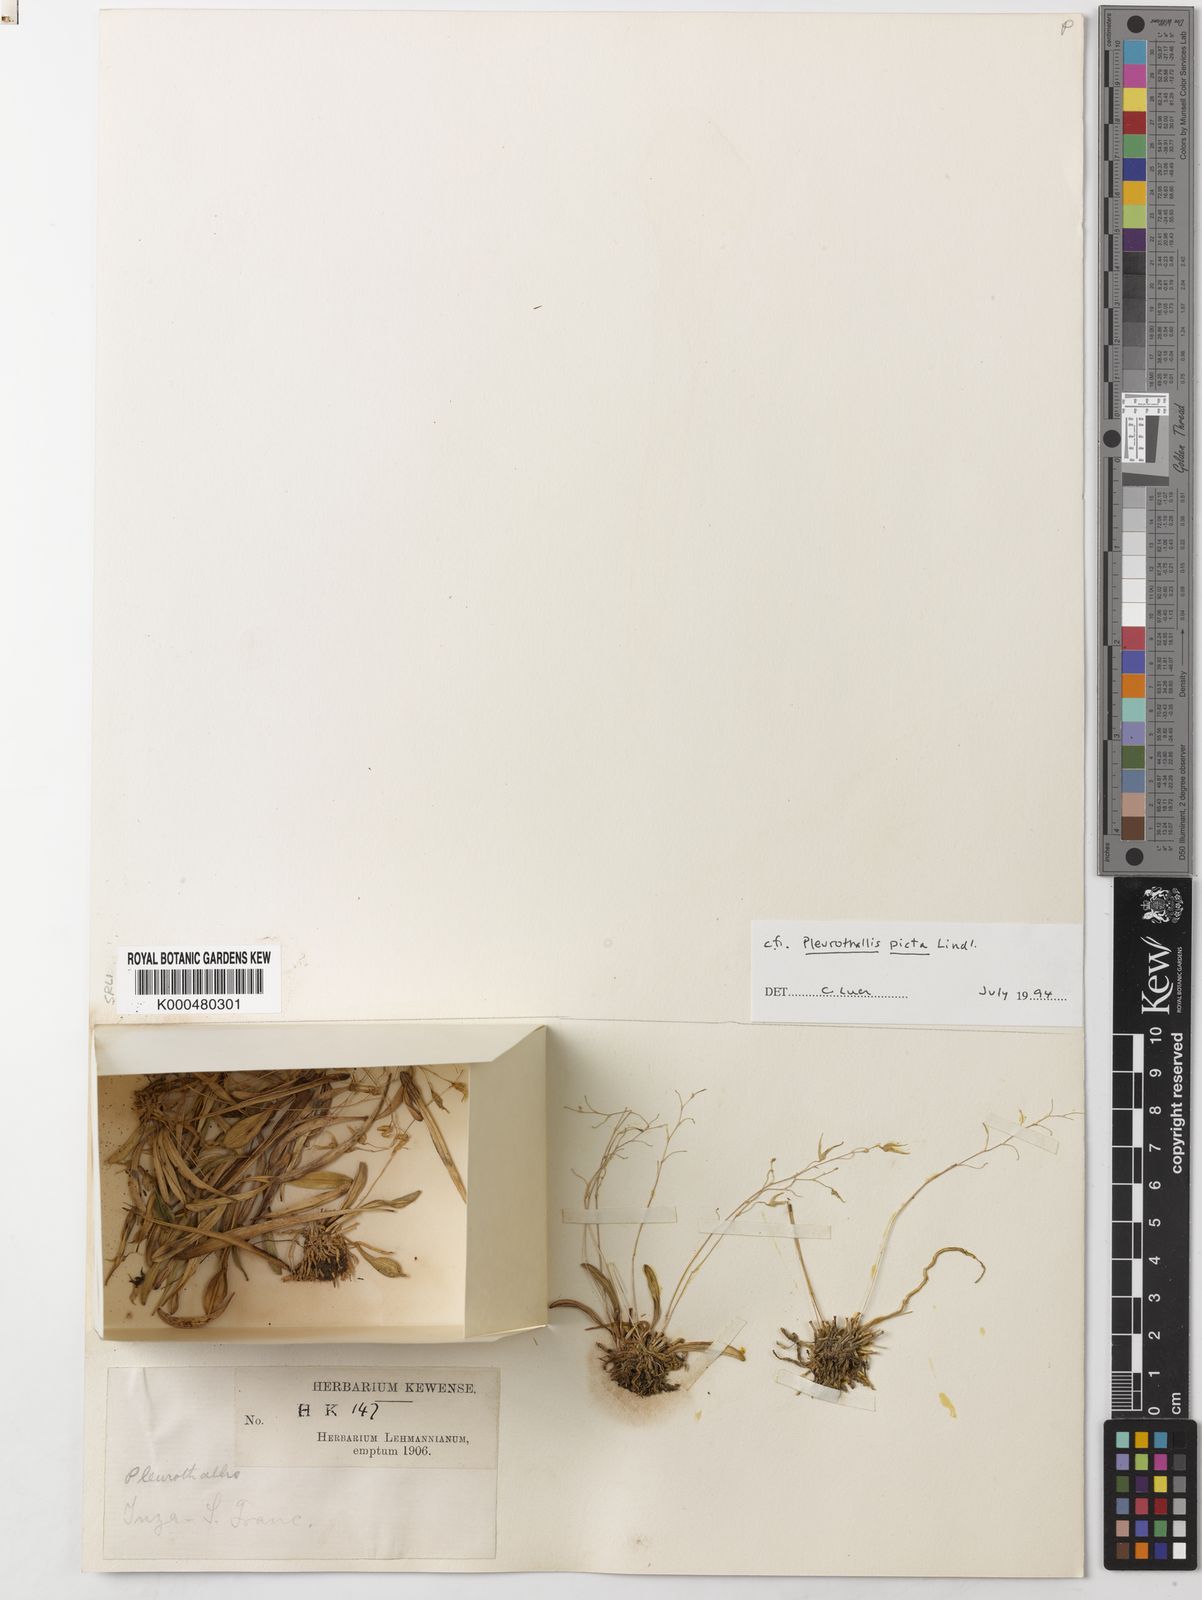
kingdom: Plantae
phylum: Tracheophyta
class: Liliopsida
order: Asparagales
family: Orchidaceae
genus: Specklinia
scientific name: Specklinia picta
